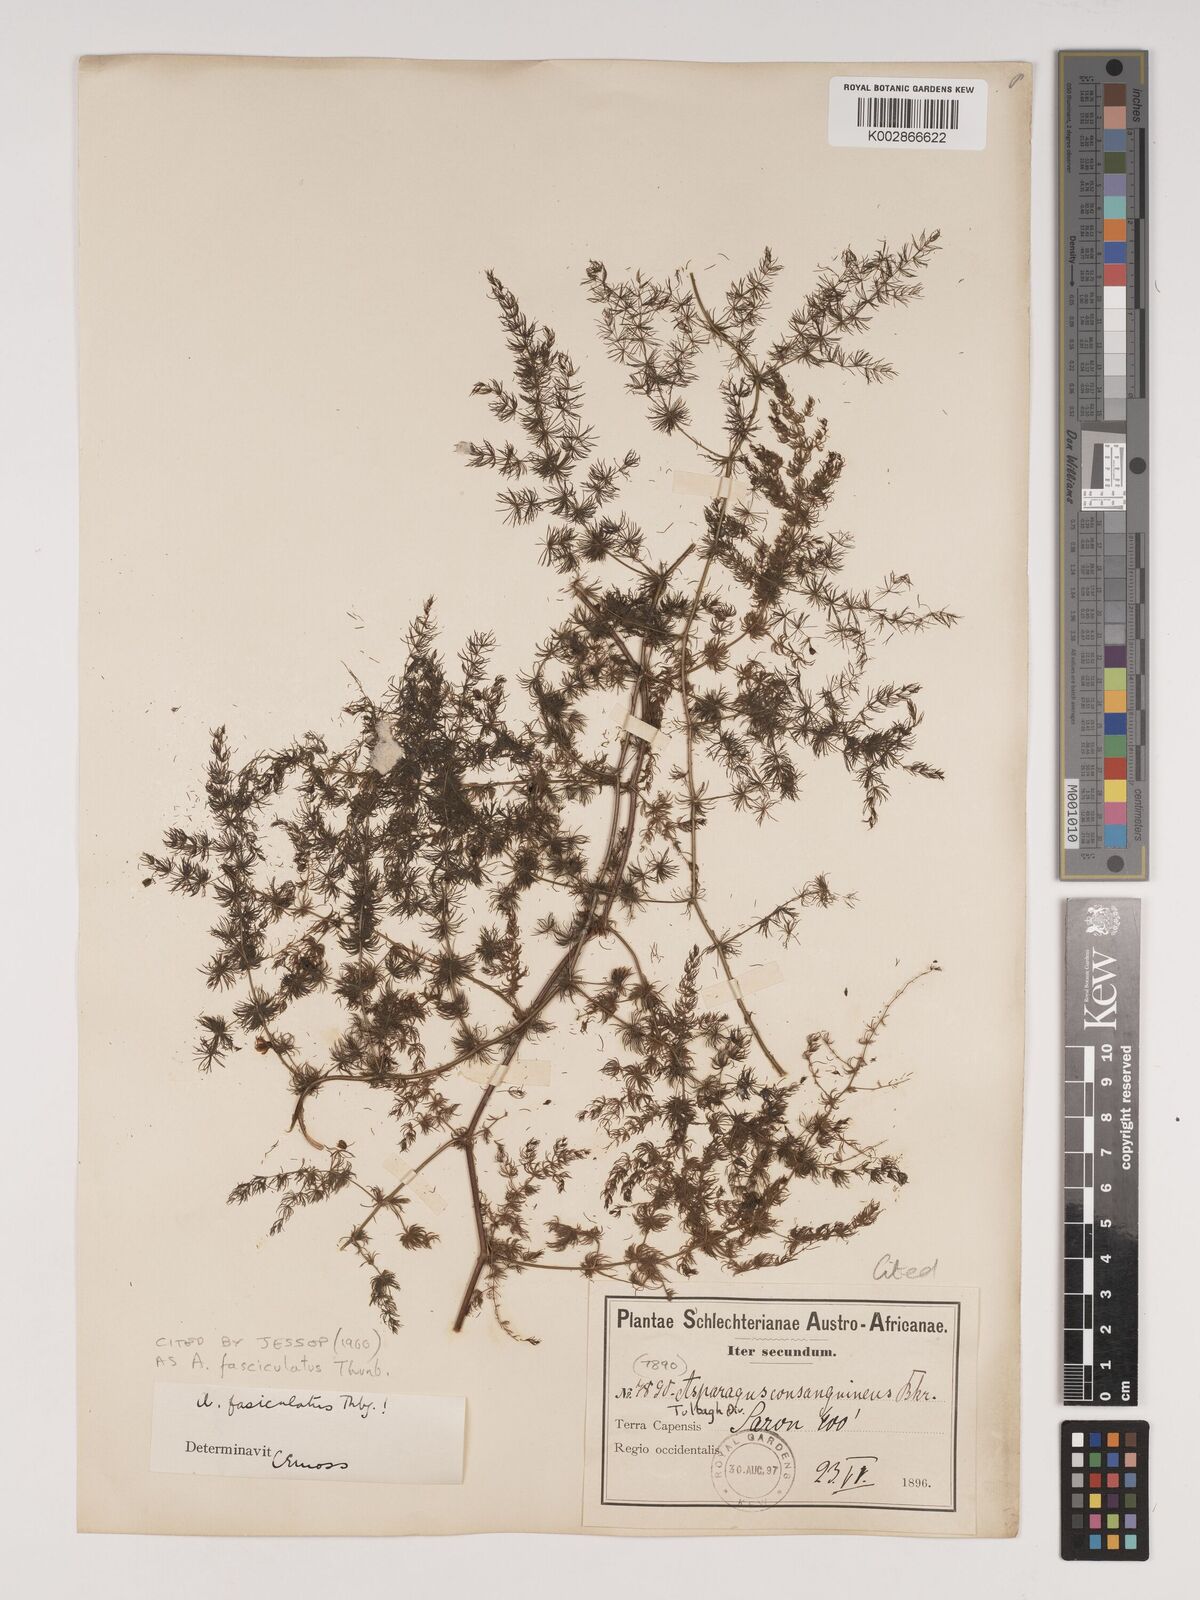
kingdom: Plantae
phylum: Tracheophyta
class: Liliopsida
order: Asparagales
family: Asparagaceae
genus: Asparagus
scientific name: Asparagus fasciculatus
